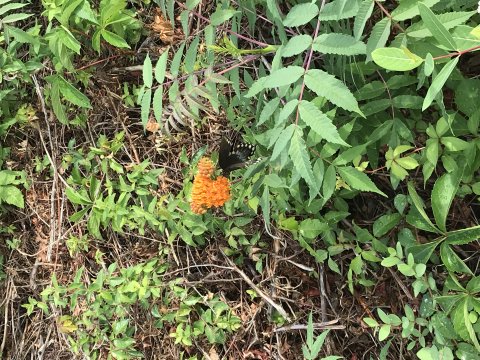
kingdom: Animalia
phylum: Arthropoda
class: Insecta
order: Lepidoptera
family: Papilionidae
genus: Pterourus
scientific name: Pterourus troilus
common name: Spicebush Swallowtail
